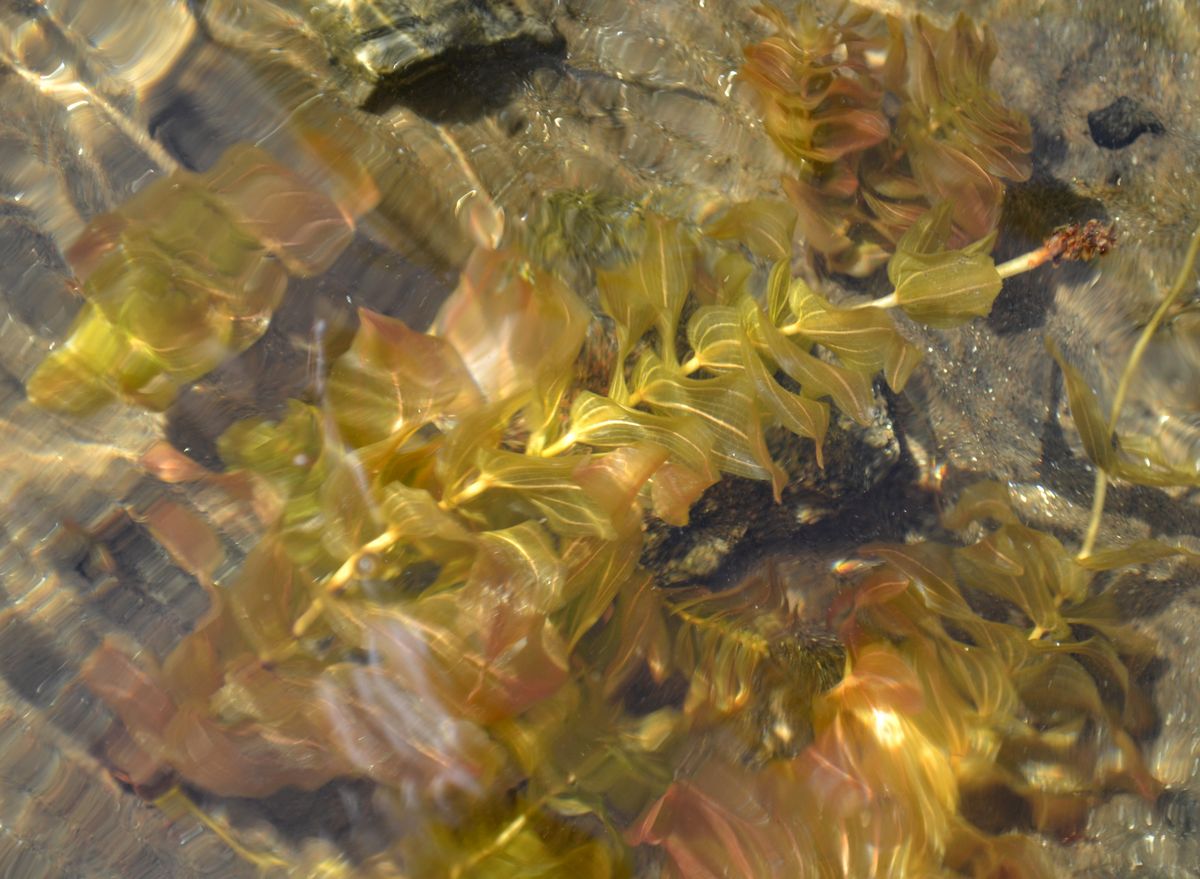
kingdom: Plantae
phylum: Tracheophyta
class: Liliopsida
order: Alismatales
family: Potamogetonaceae
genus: Potamogeton
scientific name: Potamogeton perfoliatus
